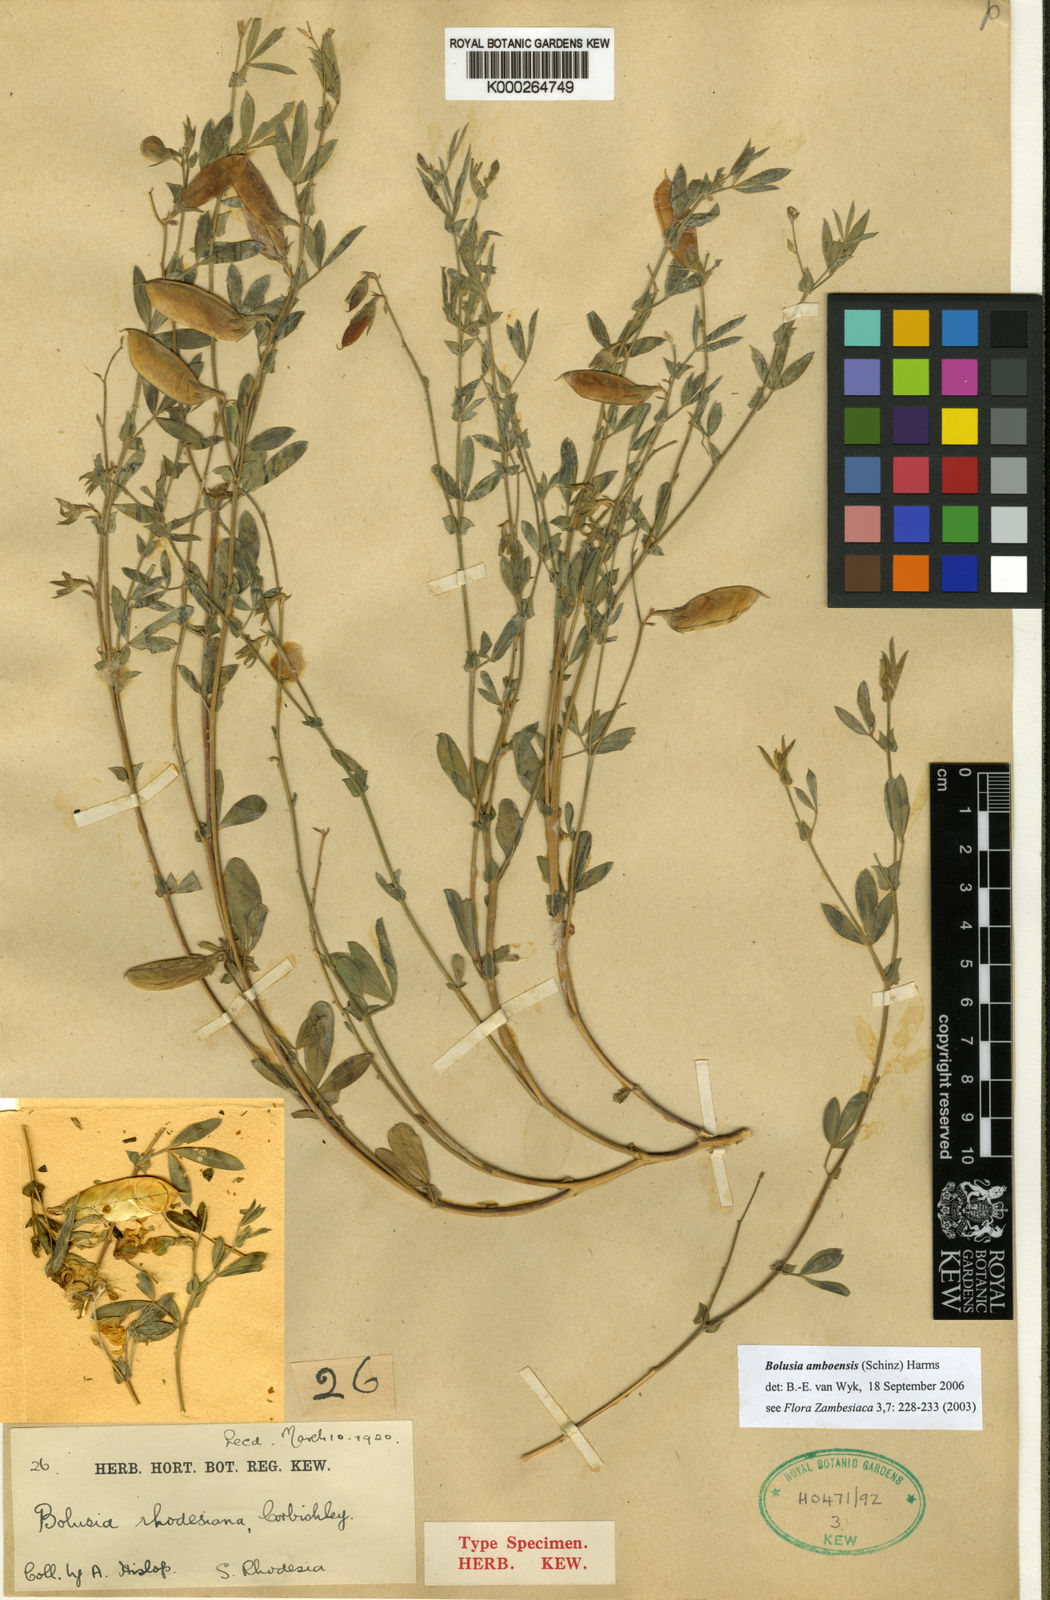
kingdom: Plantae
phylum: Tracheophyta
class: Magnoliopsida
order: Fabales
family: Fabaceae
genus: Bolusia
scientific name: Bolusia amboensis
